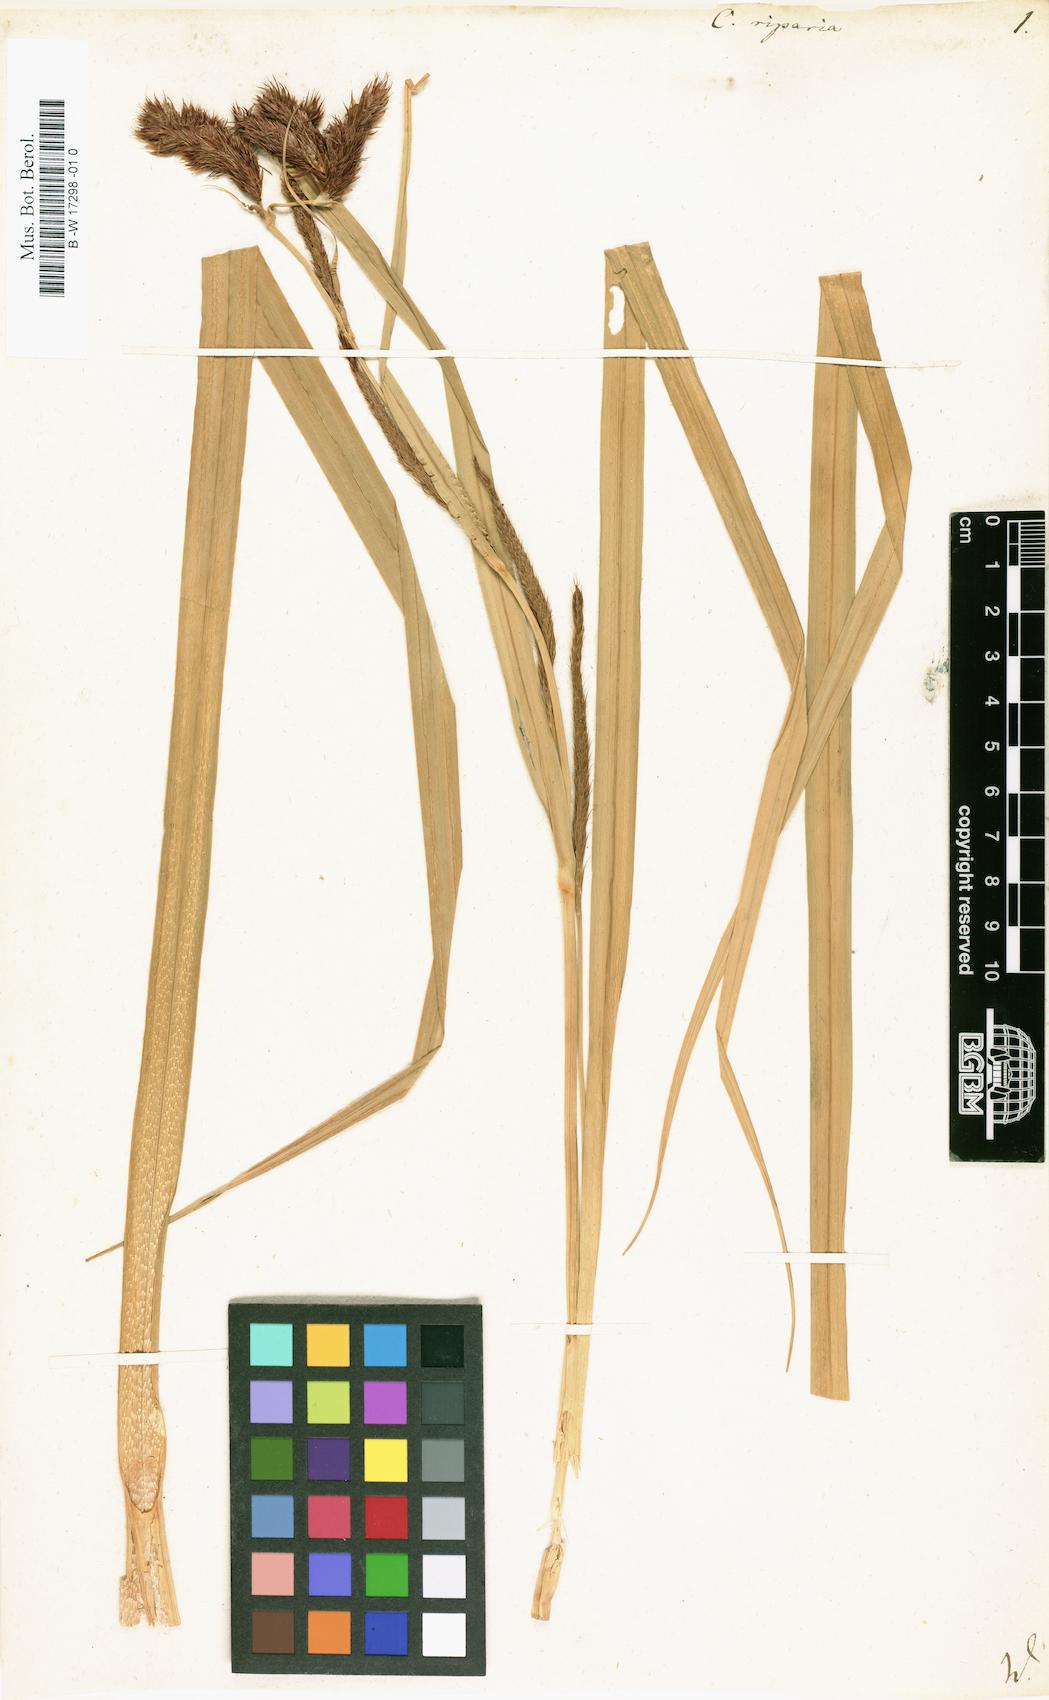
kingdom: Plantae
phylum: Tracheophyta
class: Liliopsida
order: Poales
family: Cyperaceae
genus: Carex
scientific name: Carex riparia
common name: Greater pond-sedge
